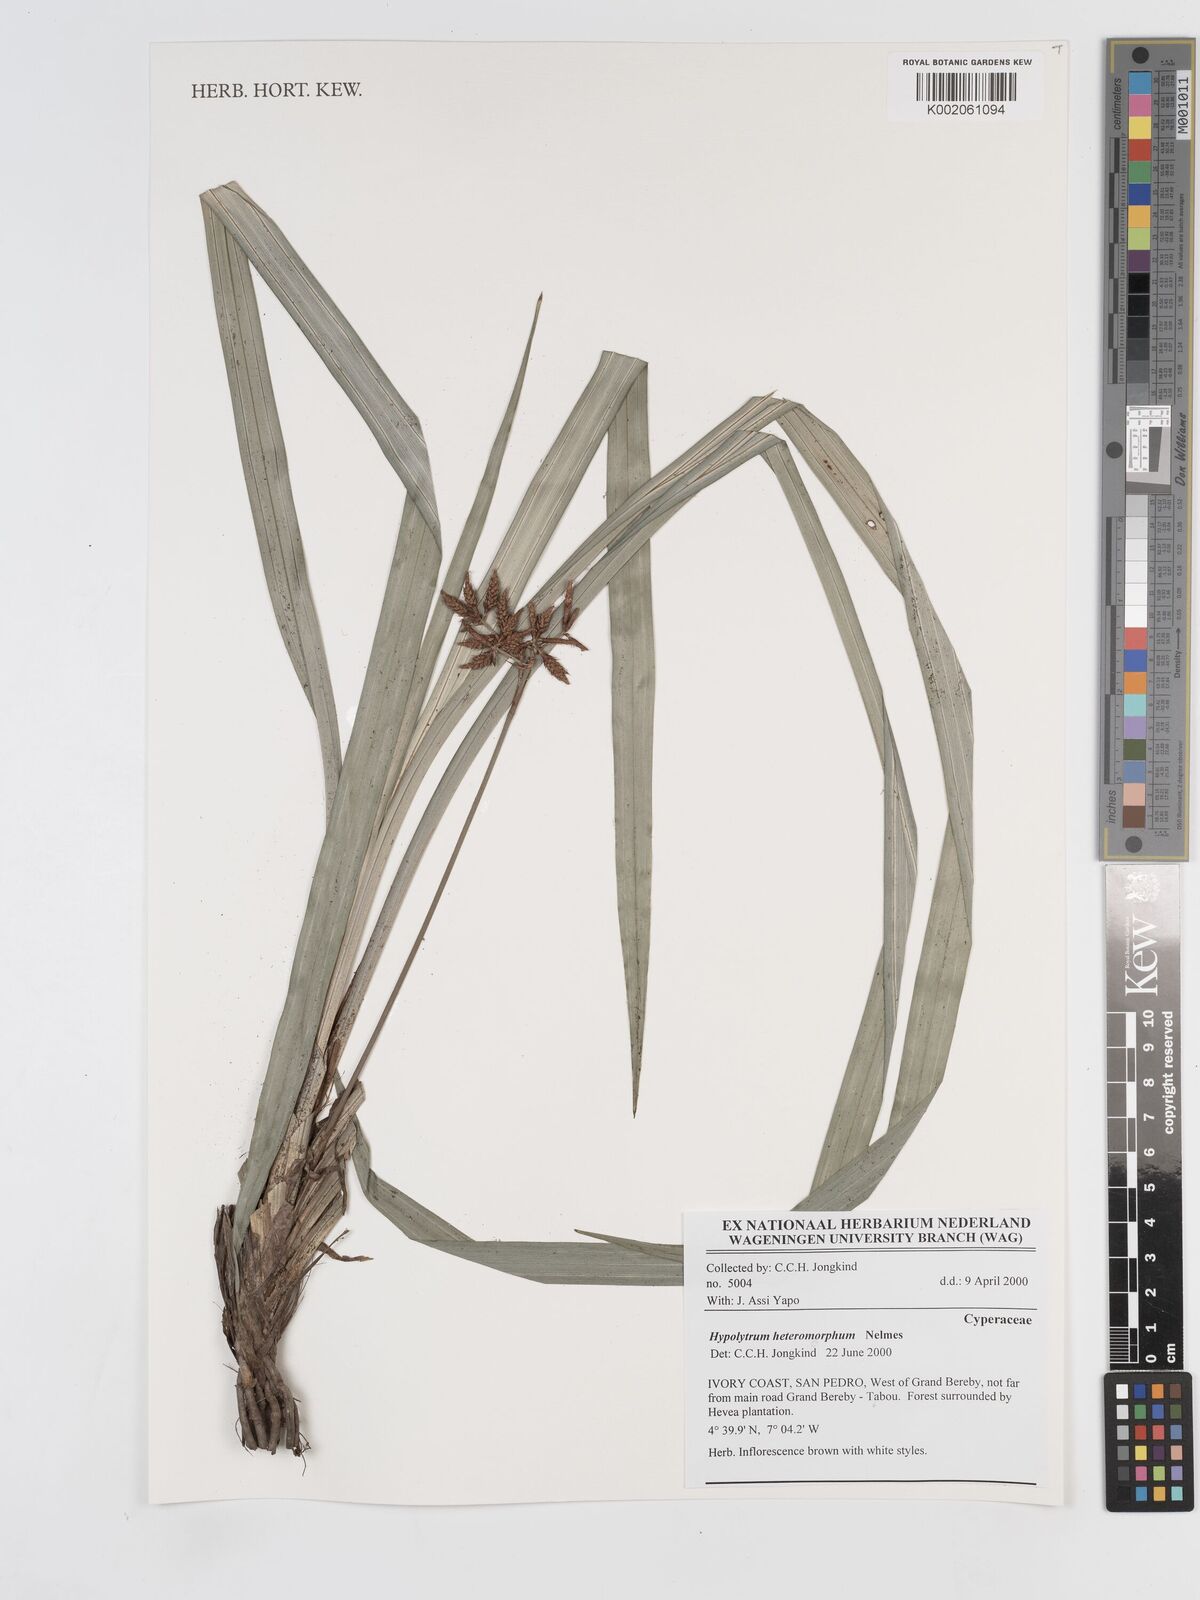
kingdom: Plantae
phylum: Tracheophyta
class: Liliopsida
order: Poales
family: Cyperaceae
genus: Hypolytrum
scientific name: Hypolytrum heteromorphum
